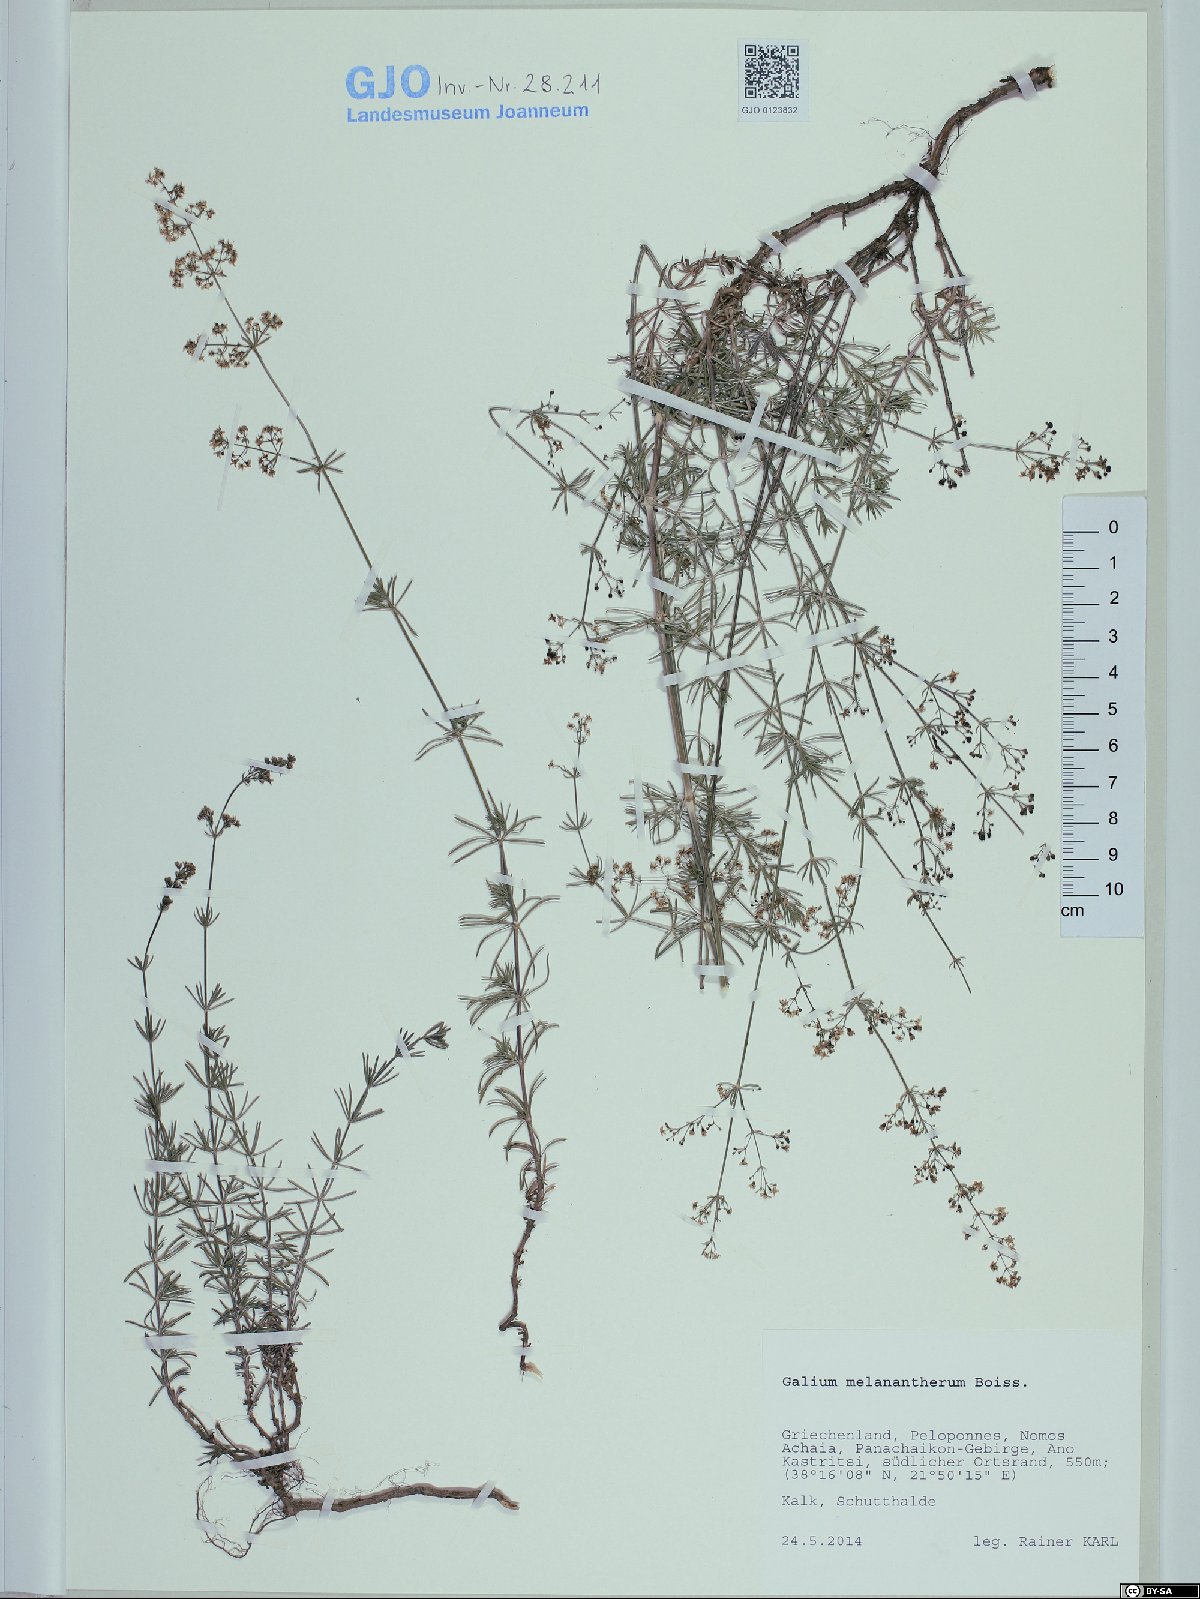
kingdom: Plantae
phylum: Tracheophyta
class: Magnoliopsida
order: Gentianales
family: Rubiaceae
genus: Galium
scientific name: Galium melanantherum
